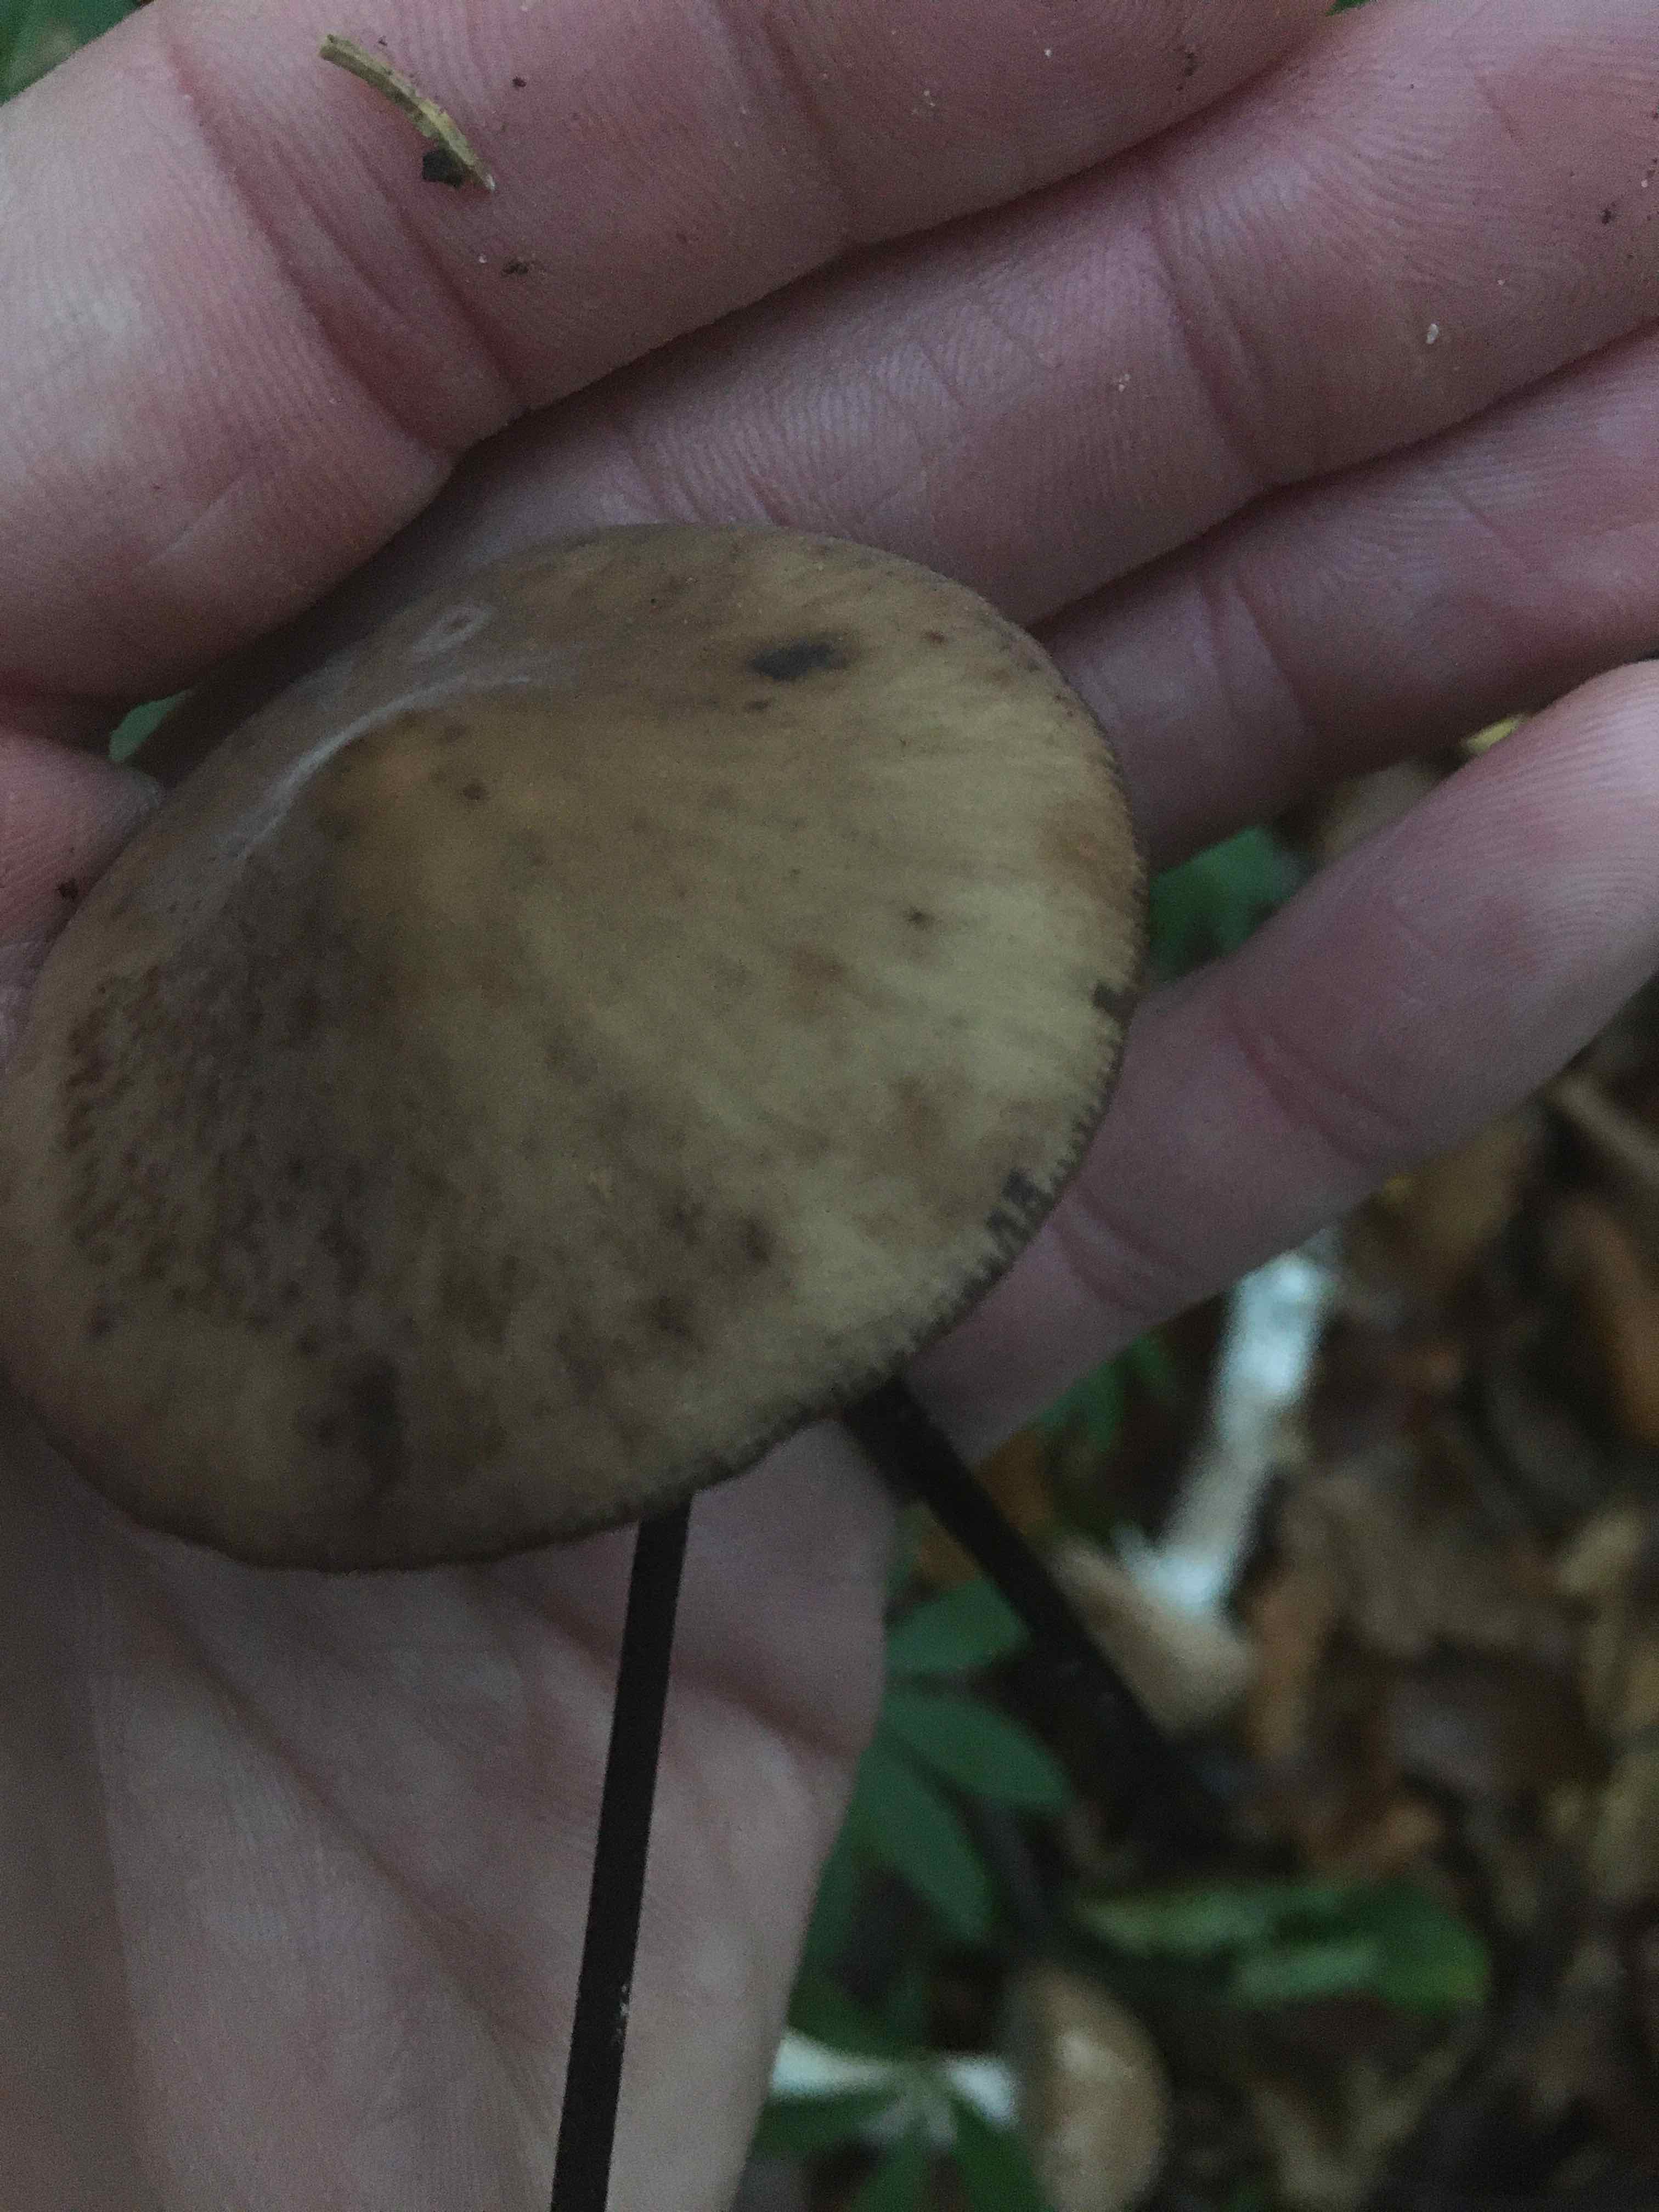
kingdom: Fungi
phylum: Basidiomycota
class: Agaricomycetes
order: Agaricales
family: Omphalotaceae
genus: Mycetinis
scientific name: Mycetinis alliaceus
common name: stor løghat
